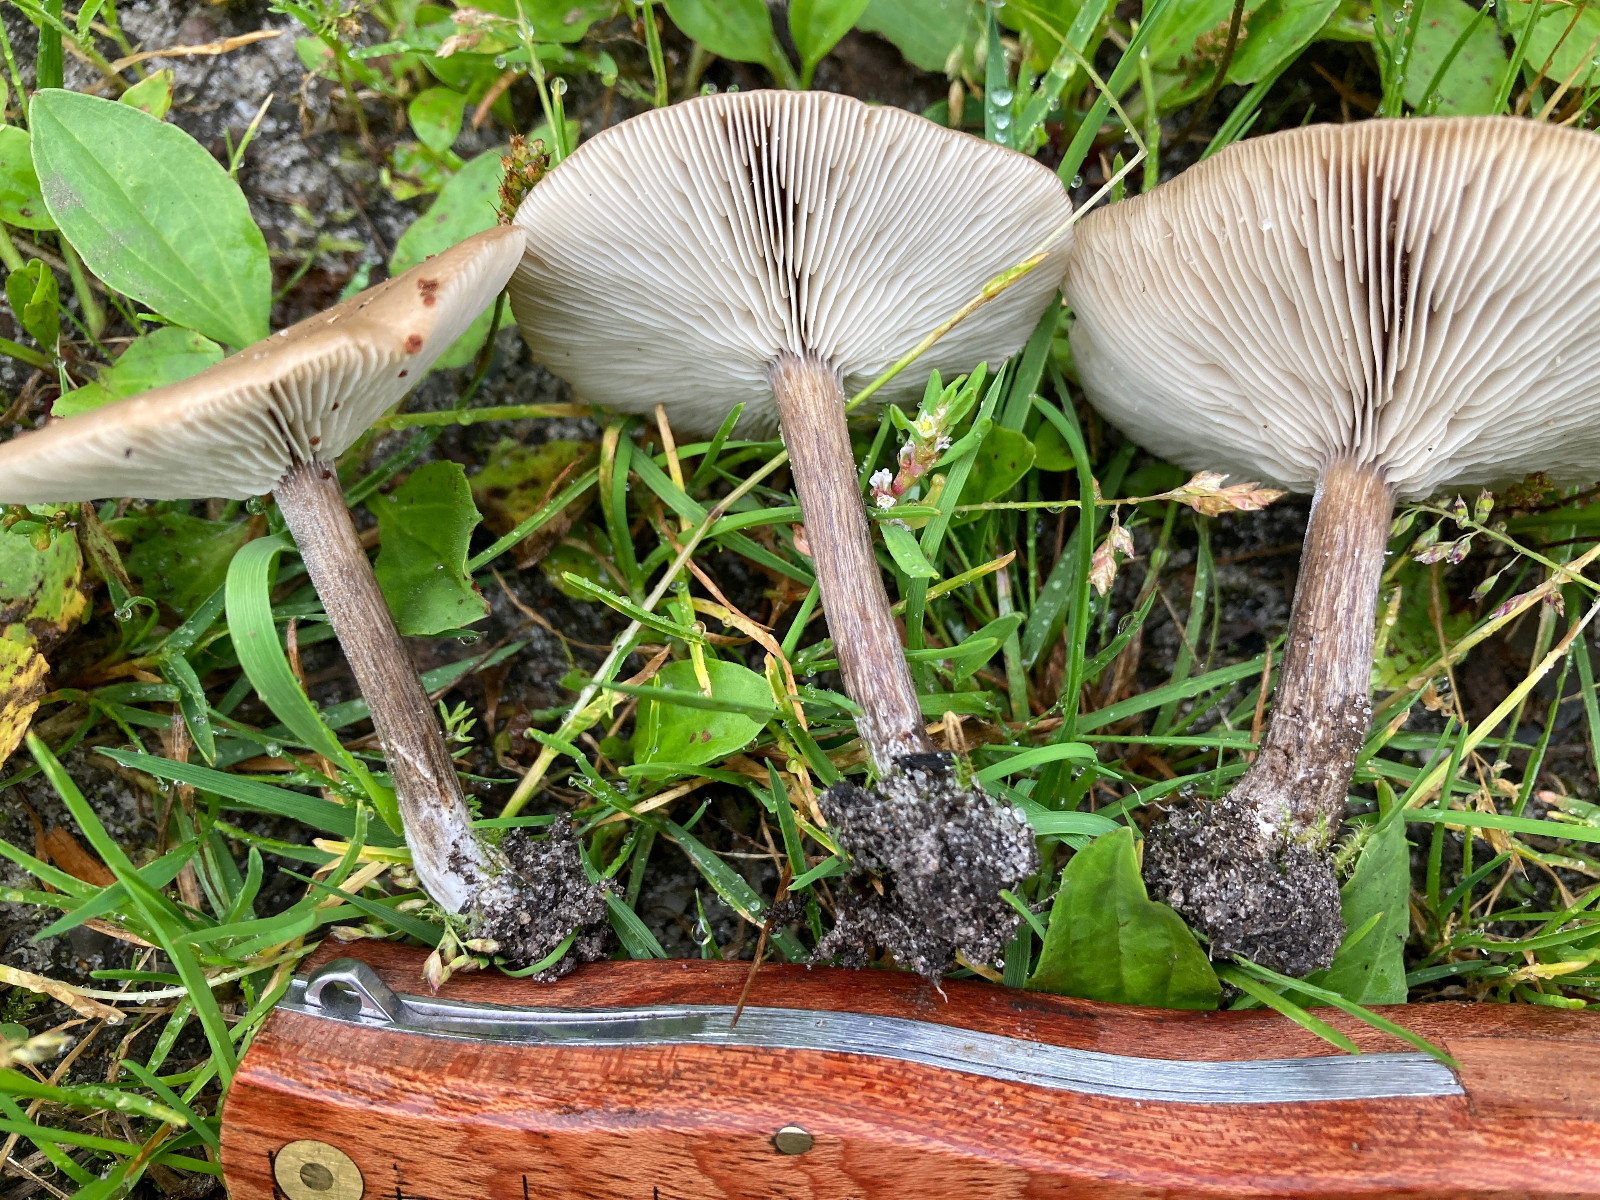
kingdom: Fungi
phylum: Basidiomycota
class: Agaricomycetes
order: Agaricales
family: Tricholomataceae
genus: Melanoleuca
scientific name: Melanoleuca
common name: munkehat
